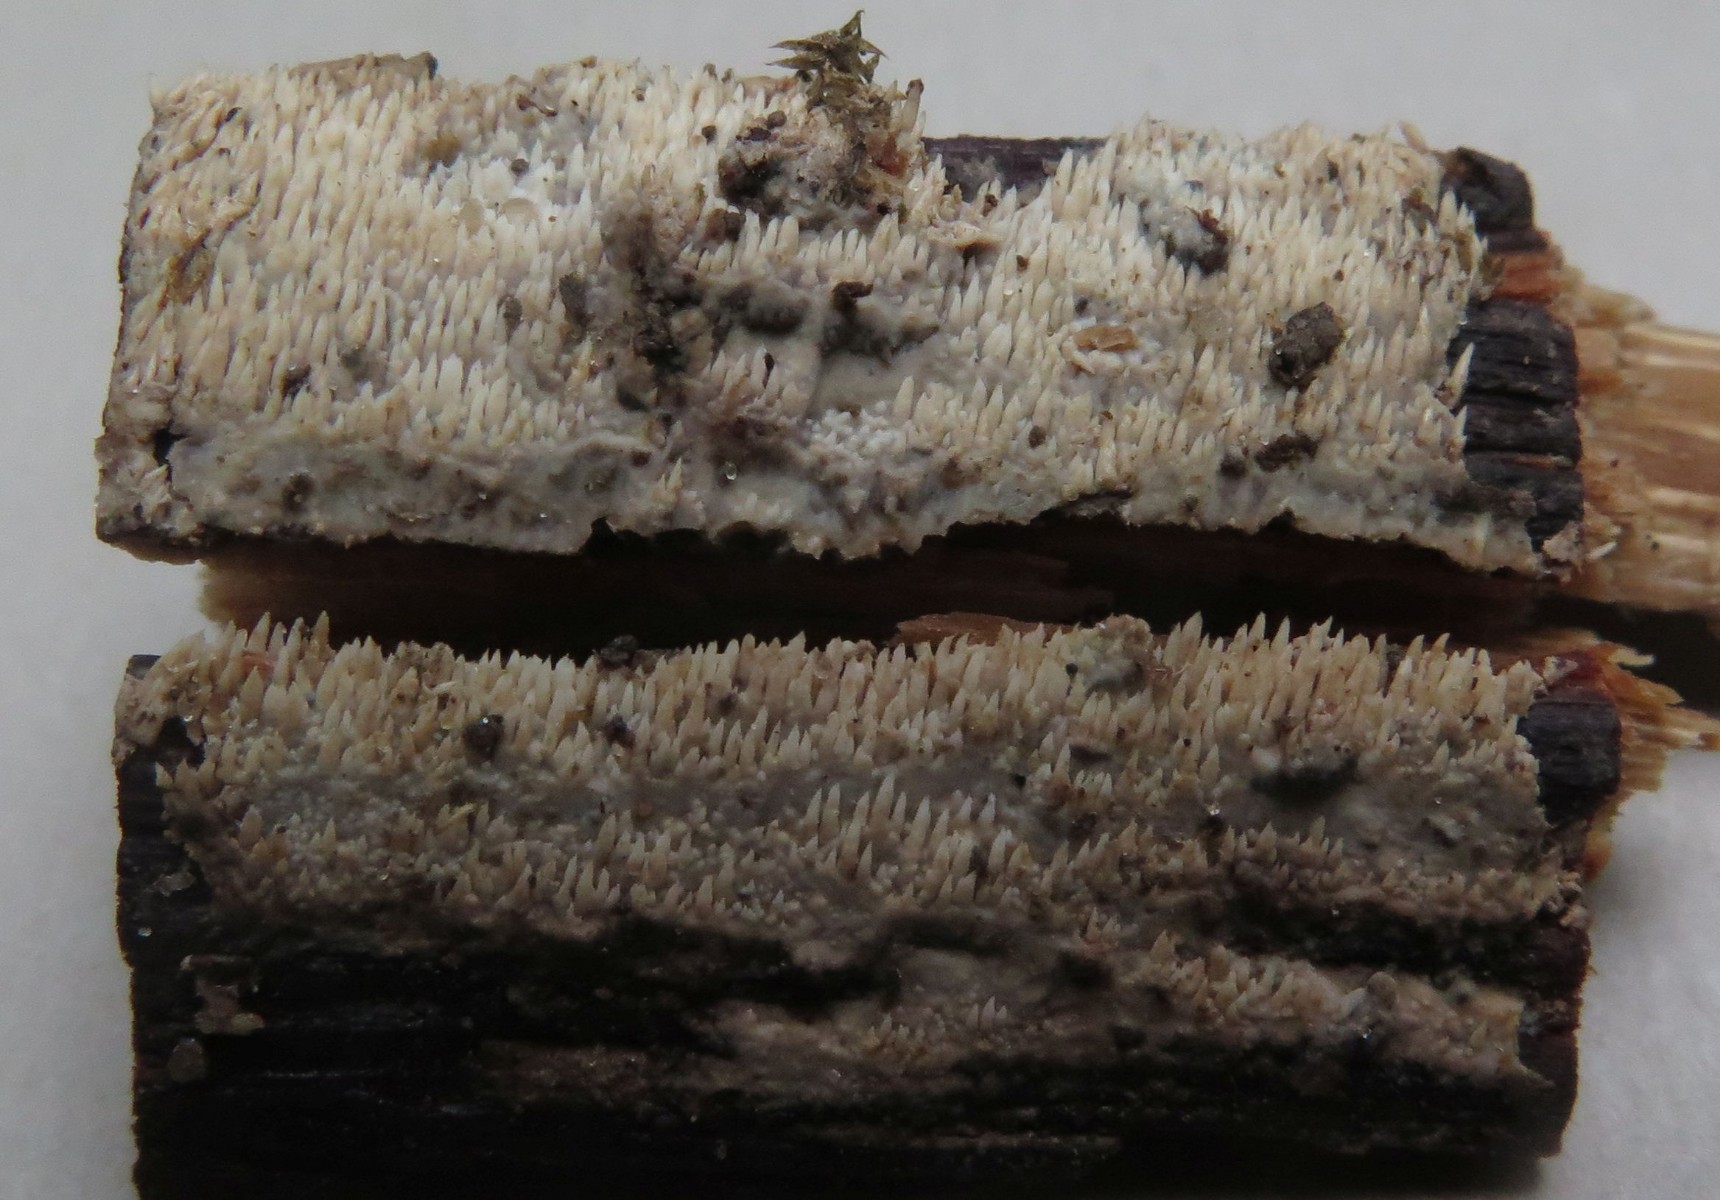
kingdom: Fungi
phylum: Basidiomycota
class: Agaricomycetes
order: Polyporales
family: Meruliaceae
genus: Mycoacia
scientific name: Mycoacia fuscoatra
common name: mørk vokspig
